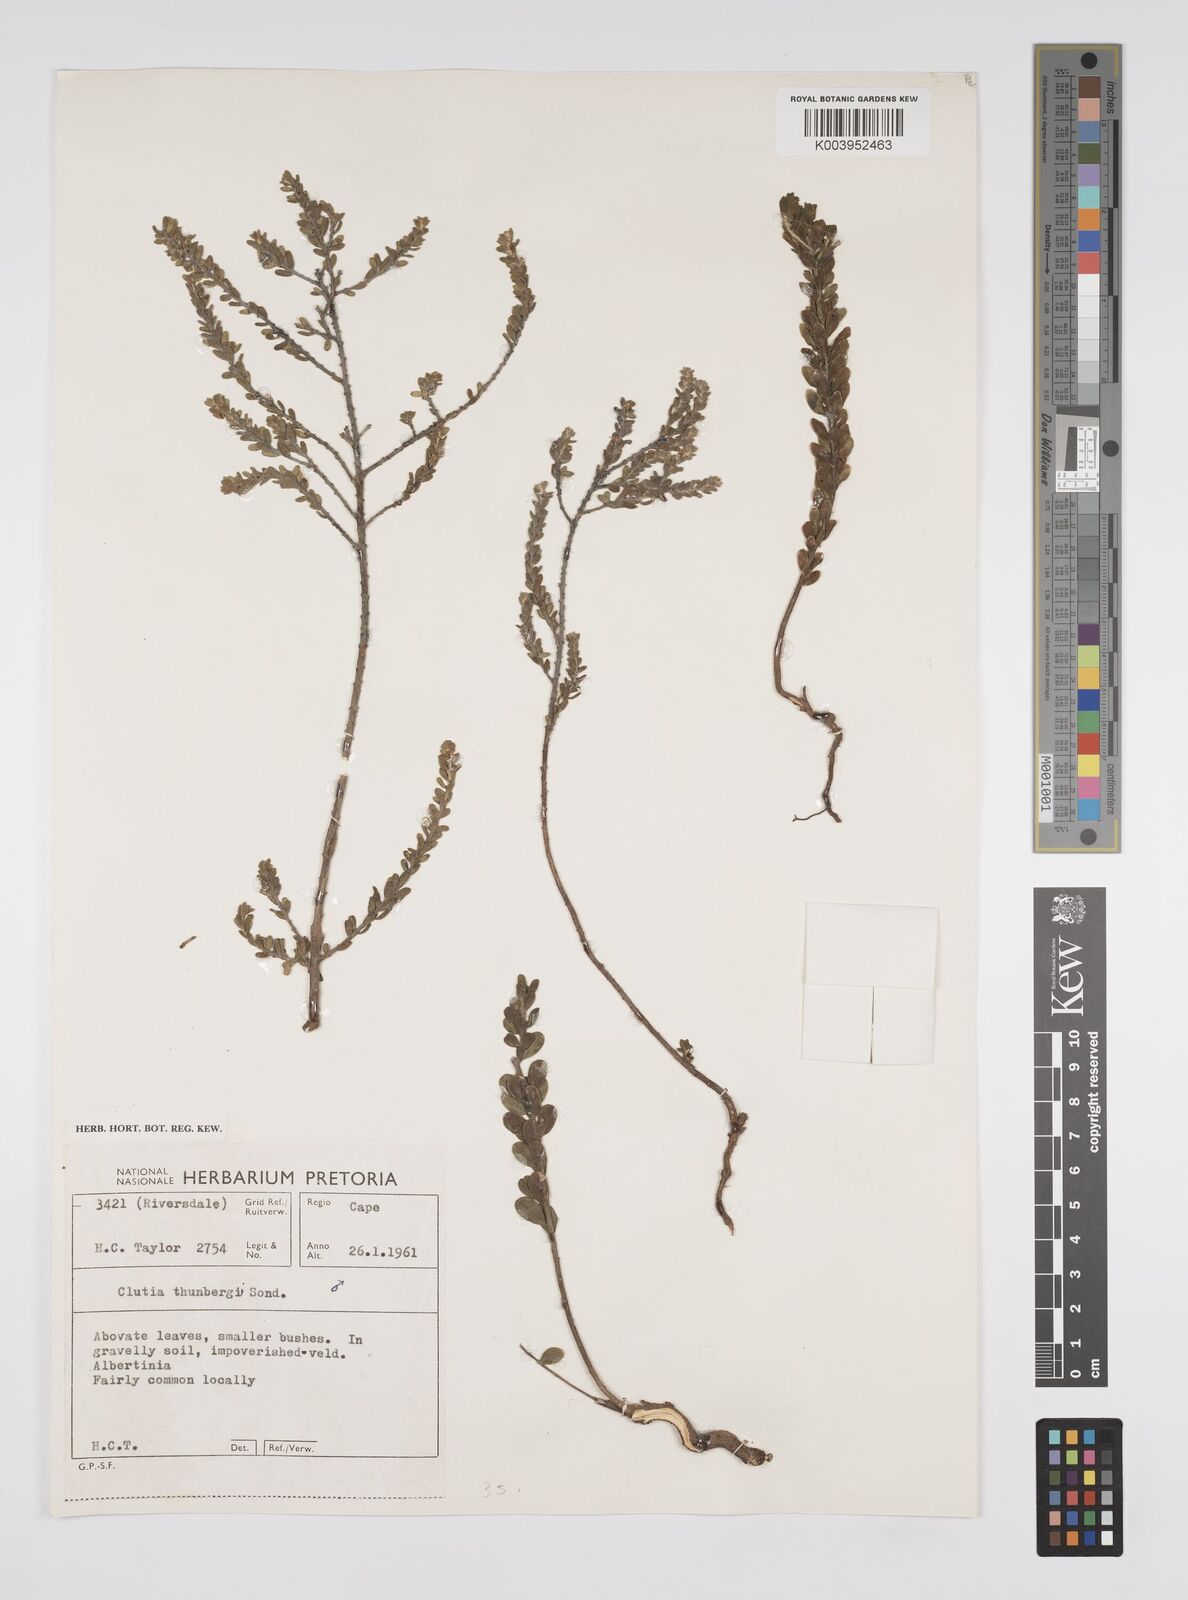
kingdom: Plantae
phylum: Tracheophyta
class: Magnoliopsida
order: Malpighiales
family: Peraceae
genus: Clutia
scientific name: Clutia thunbergii
